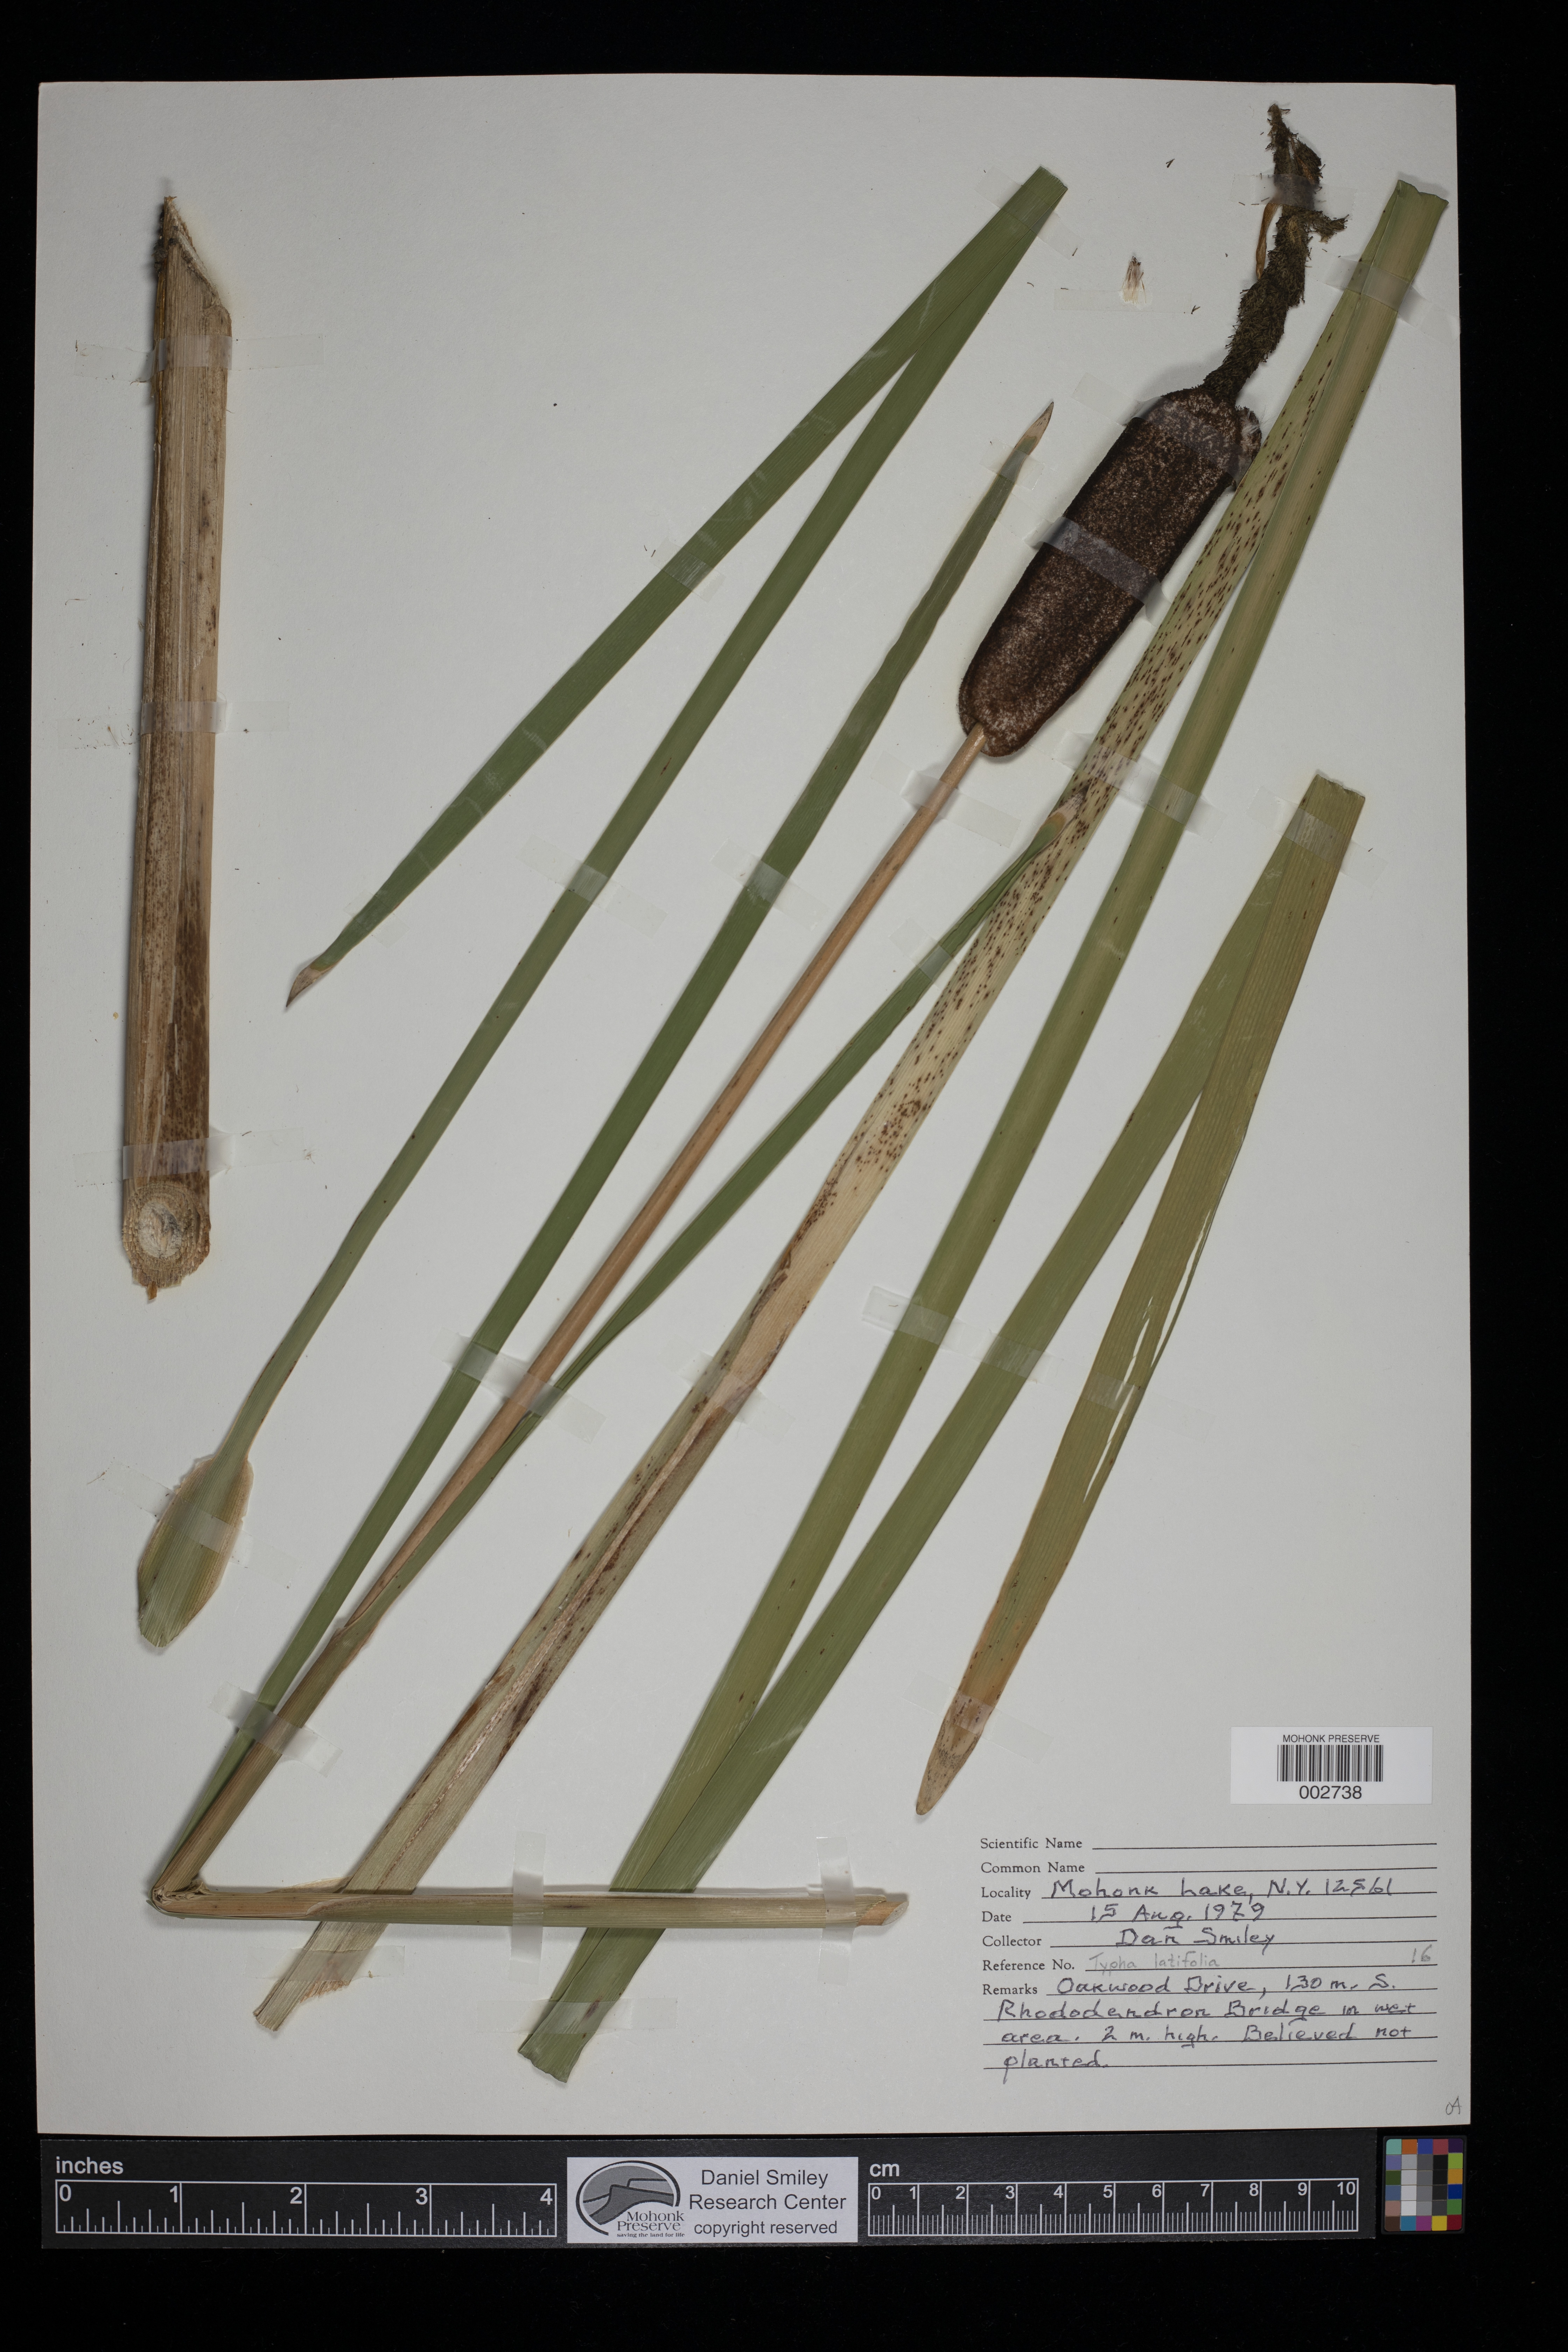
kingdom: Plantae
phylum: Tracheophyta
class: Liliopsida
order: Poales
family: Typhaceae
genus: Typha
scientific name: Typha latifolia
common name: Broadleaf cattail
